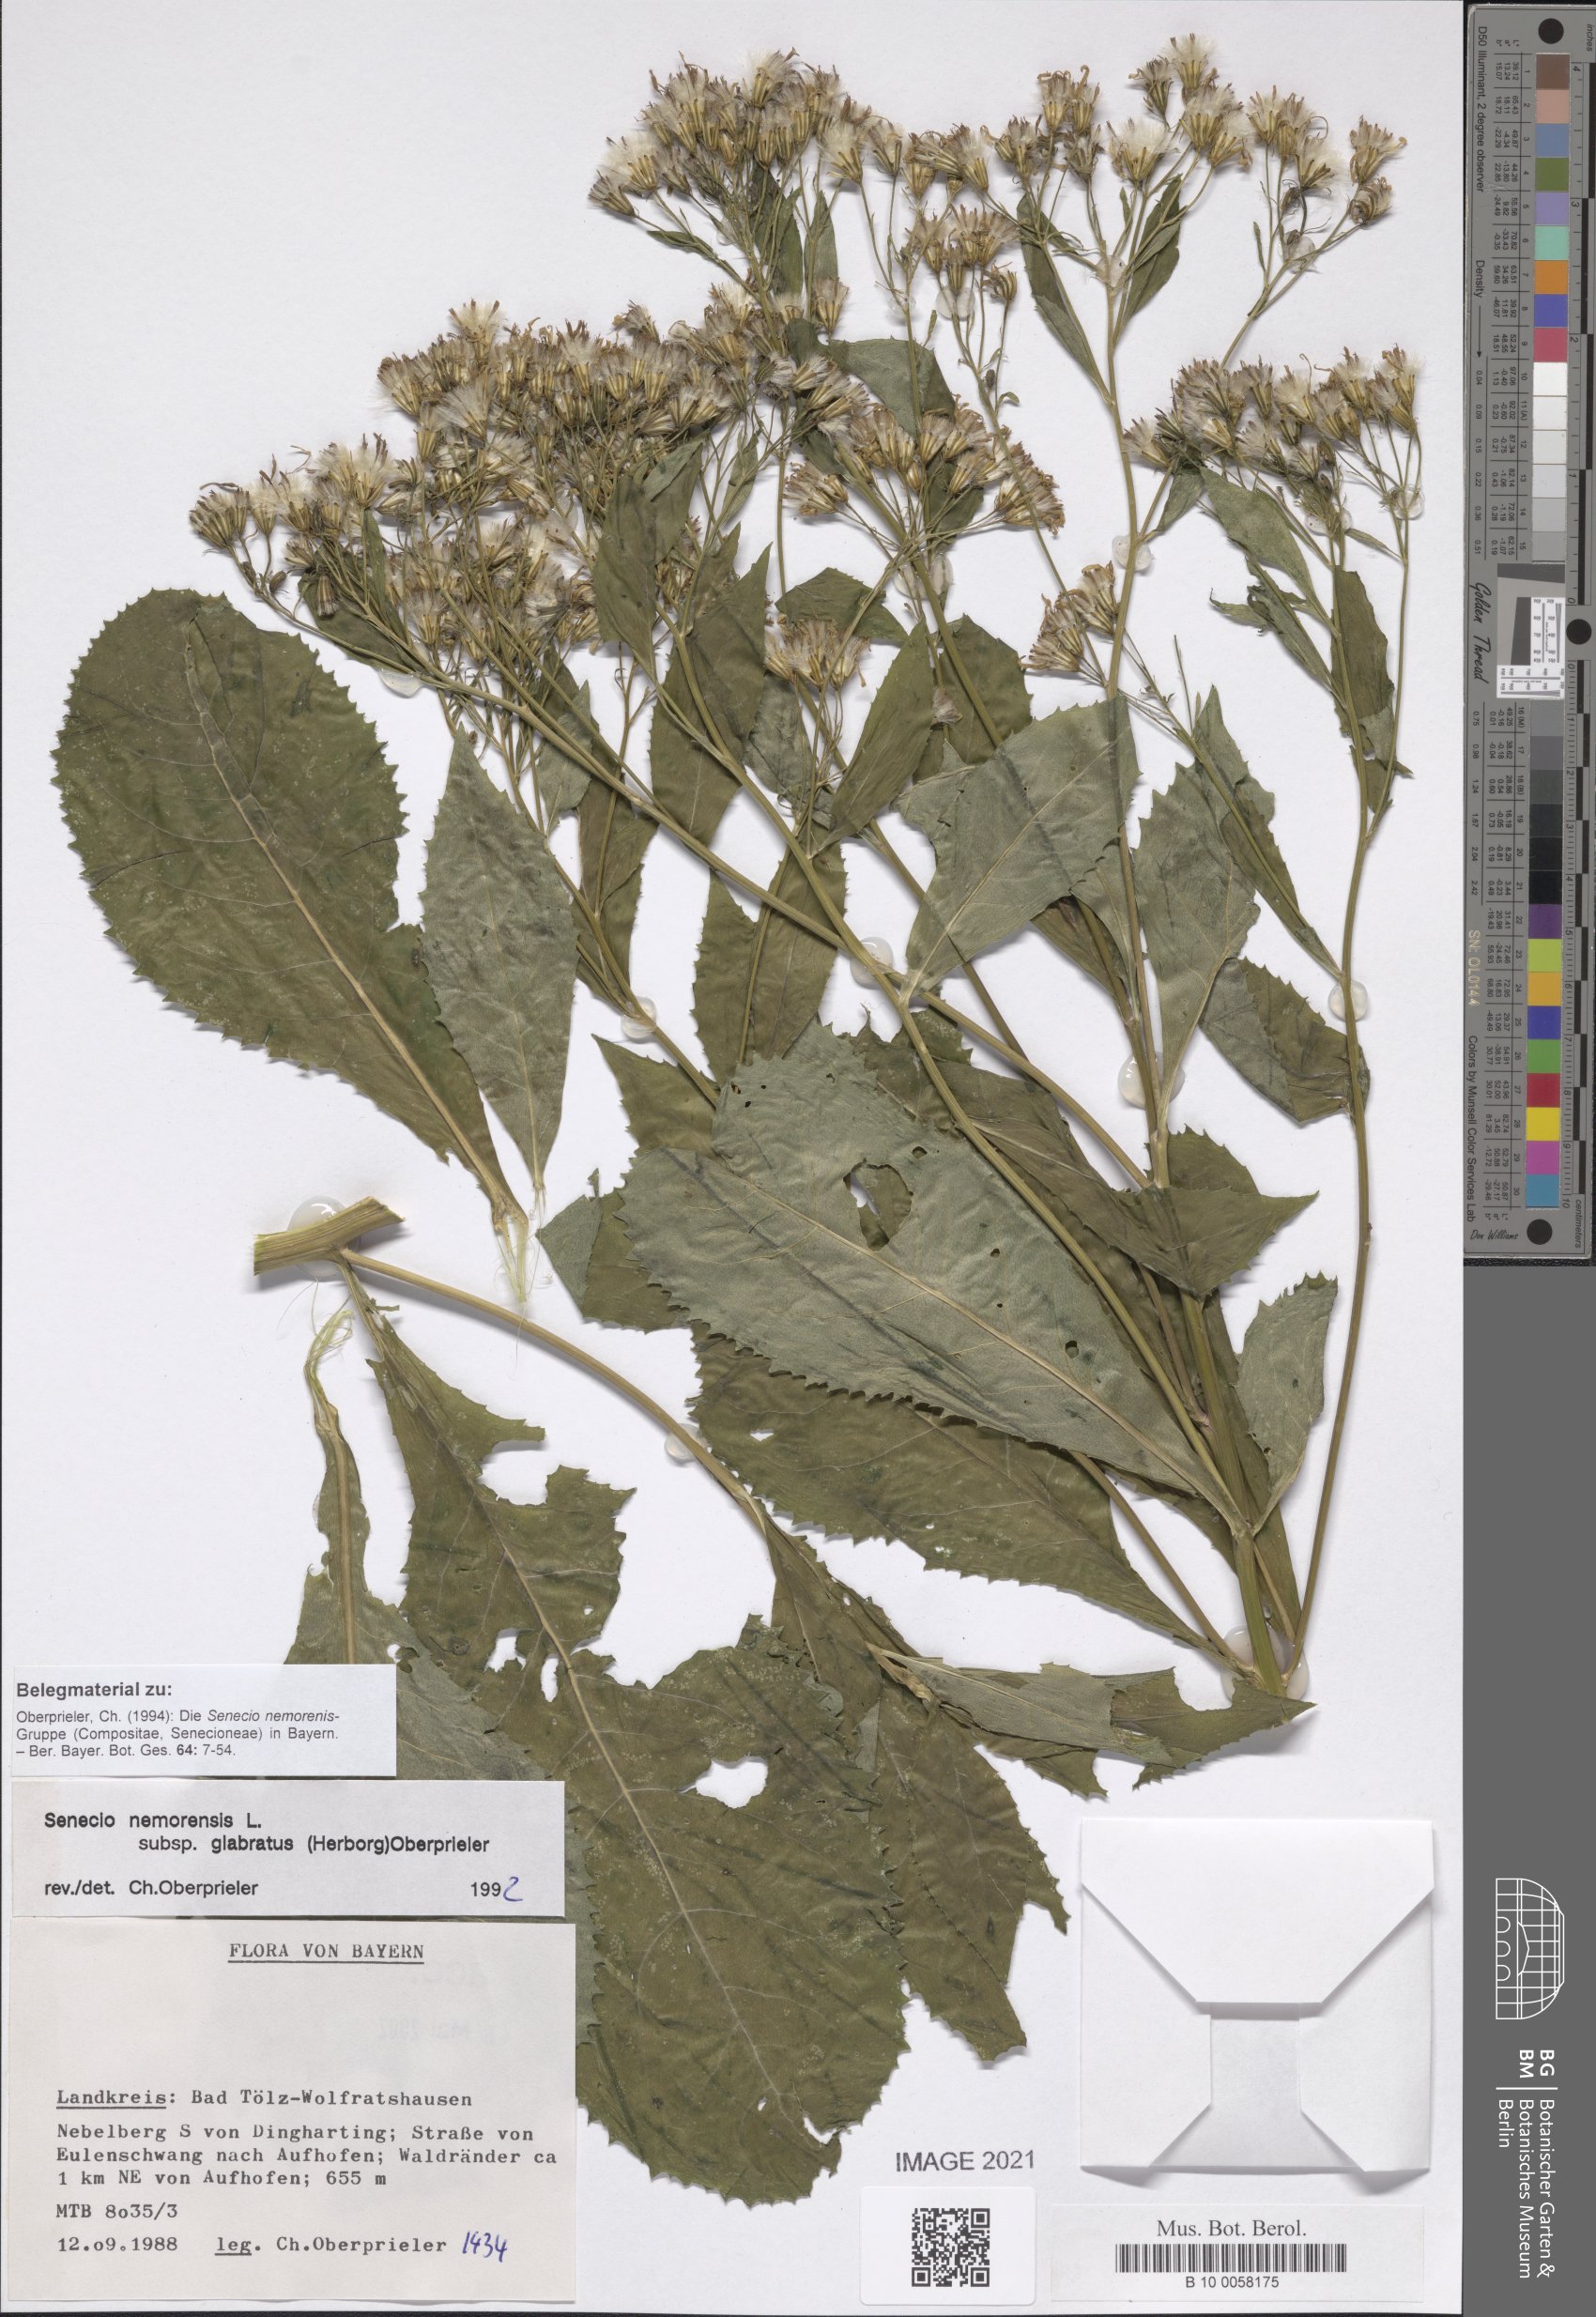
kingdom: Plantae
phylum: Tracheophyta
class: Magnoliopsida
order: Asterales
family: Asteraceae
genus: Senecio
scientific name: Senecio germanicus
